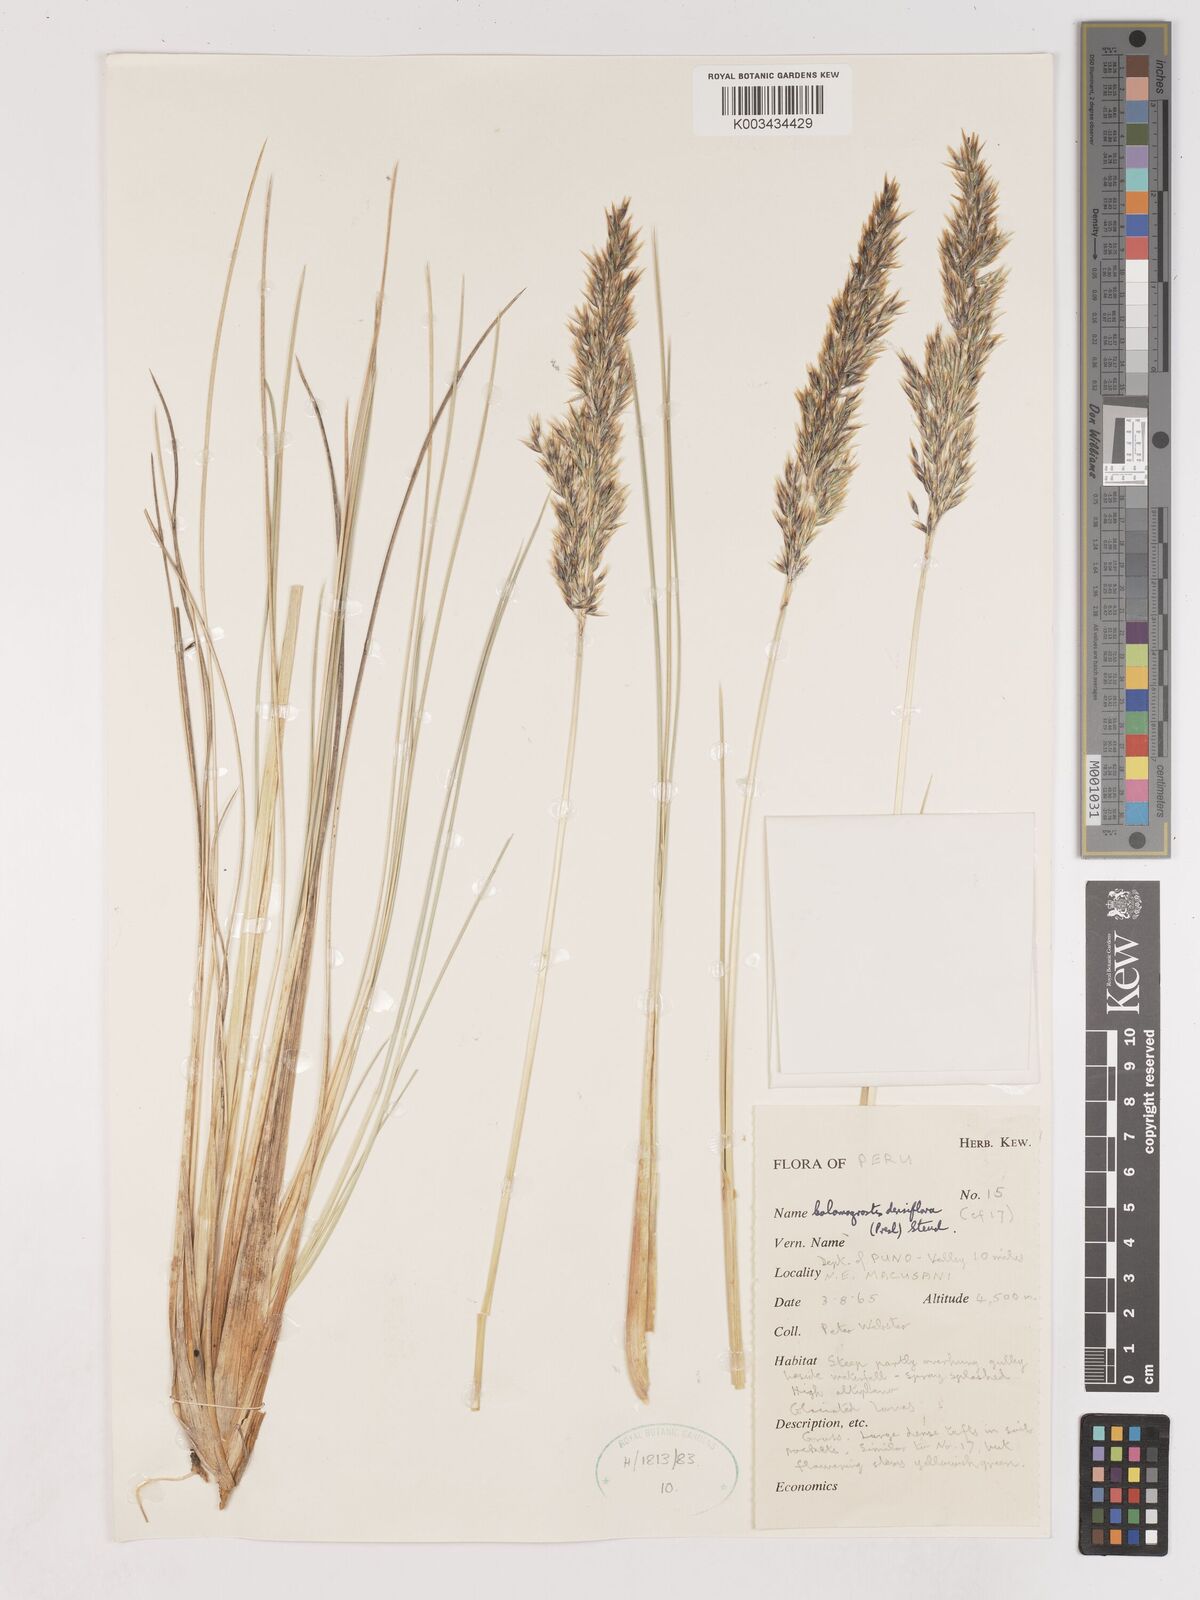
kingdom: Plantae
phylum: Tracheophyta
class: Liliopsida
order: Poales
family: Poaceae
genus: Cinnagrostis
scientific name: Cinnagrostis densiflora
